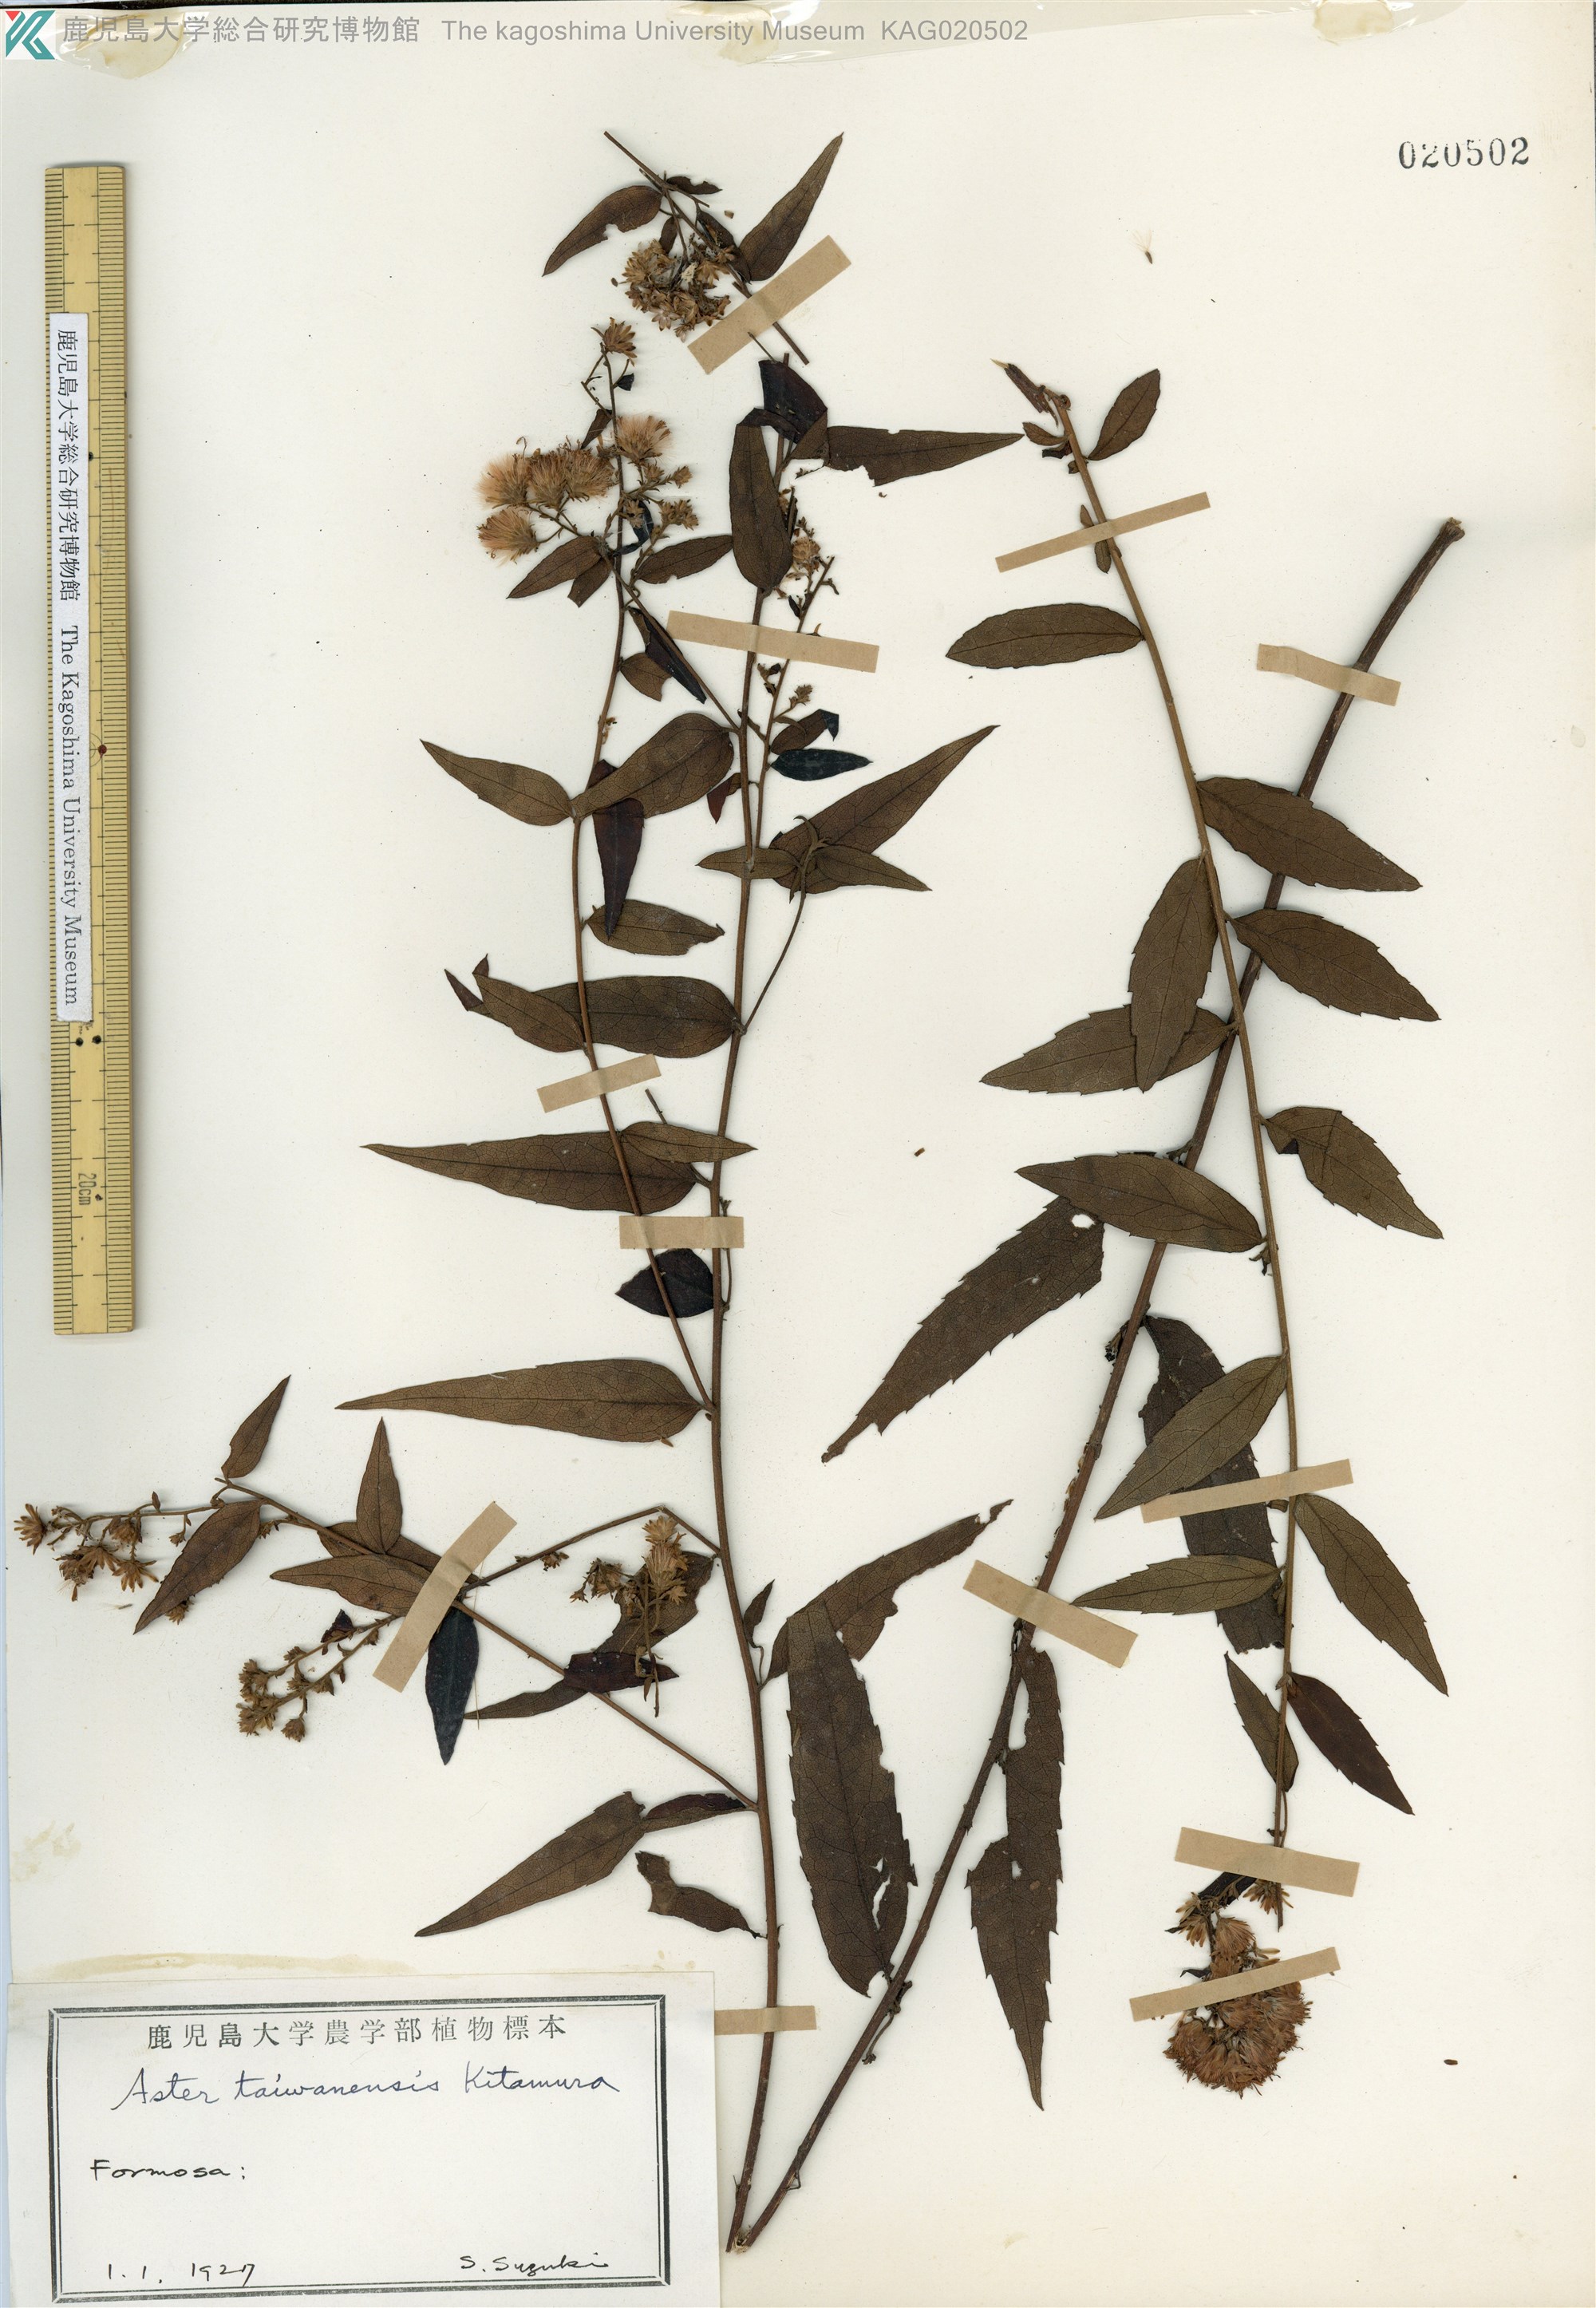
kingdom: Plantae
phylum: Tracheophyta
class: Magnoliopsida
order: Asterales
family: Asteraceae
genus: Aster
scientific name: Aster taiwanensis
